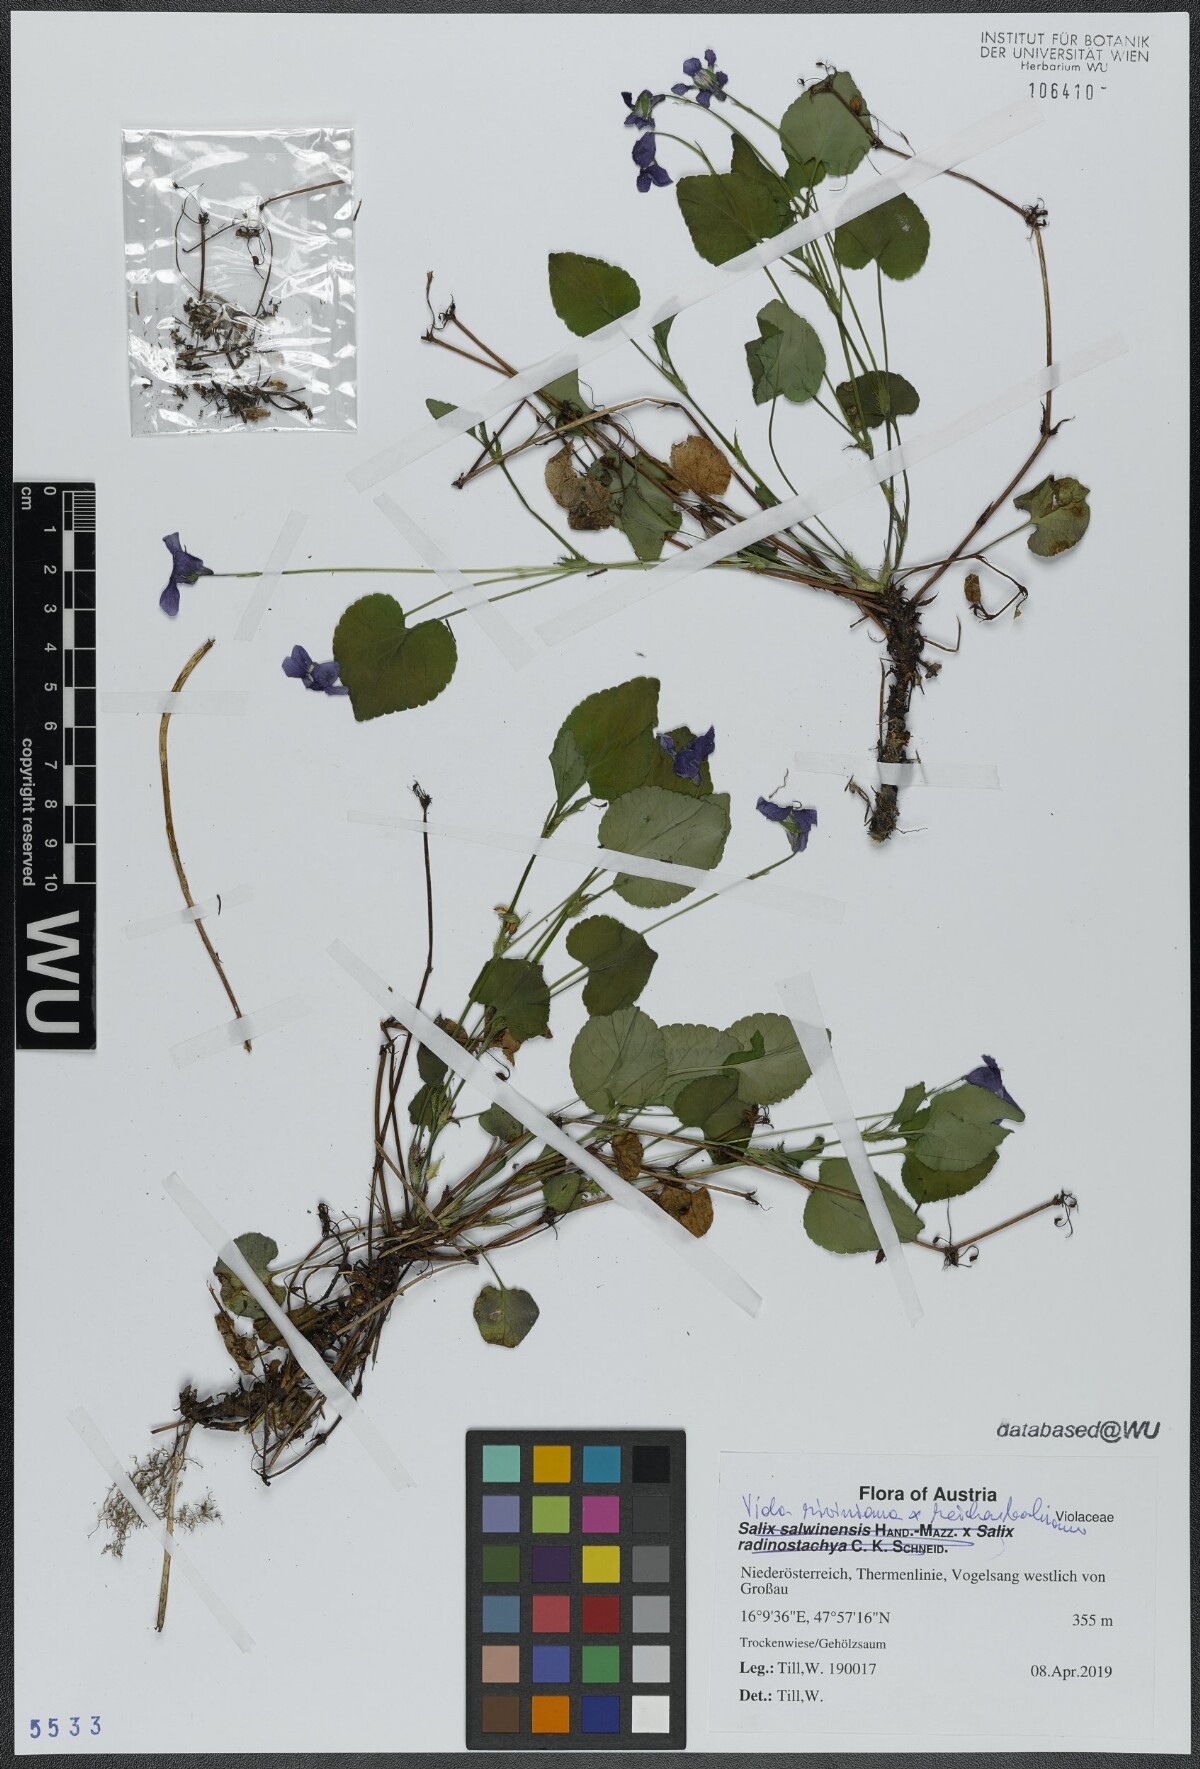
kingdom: Plantae
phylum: Tracheophyta
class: Magnoliopsida
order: Malpighiales
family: Violaceae
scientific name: Violaceae
